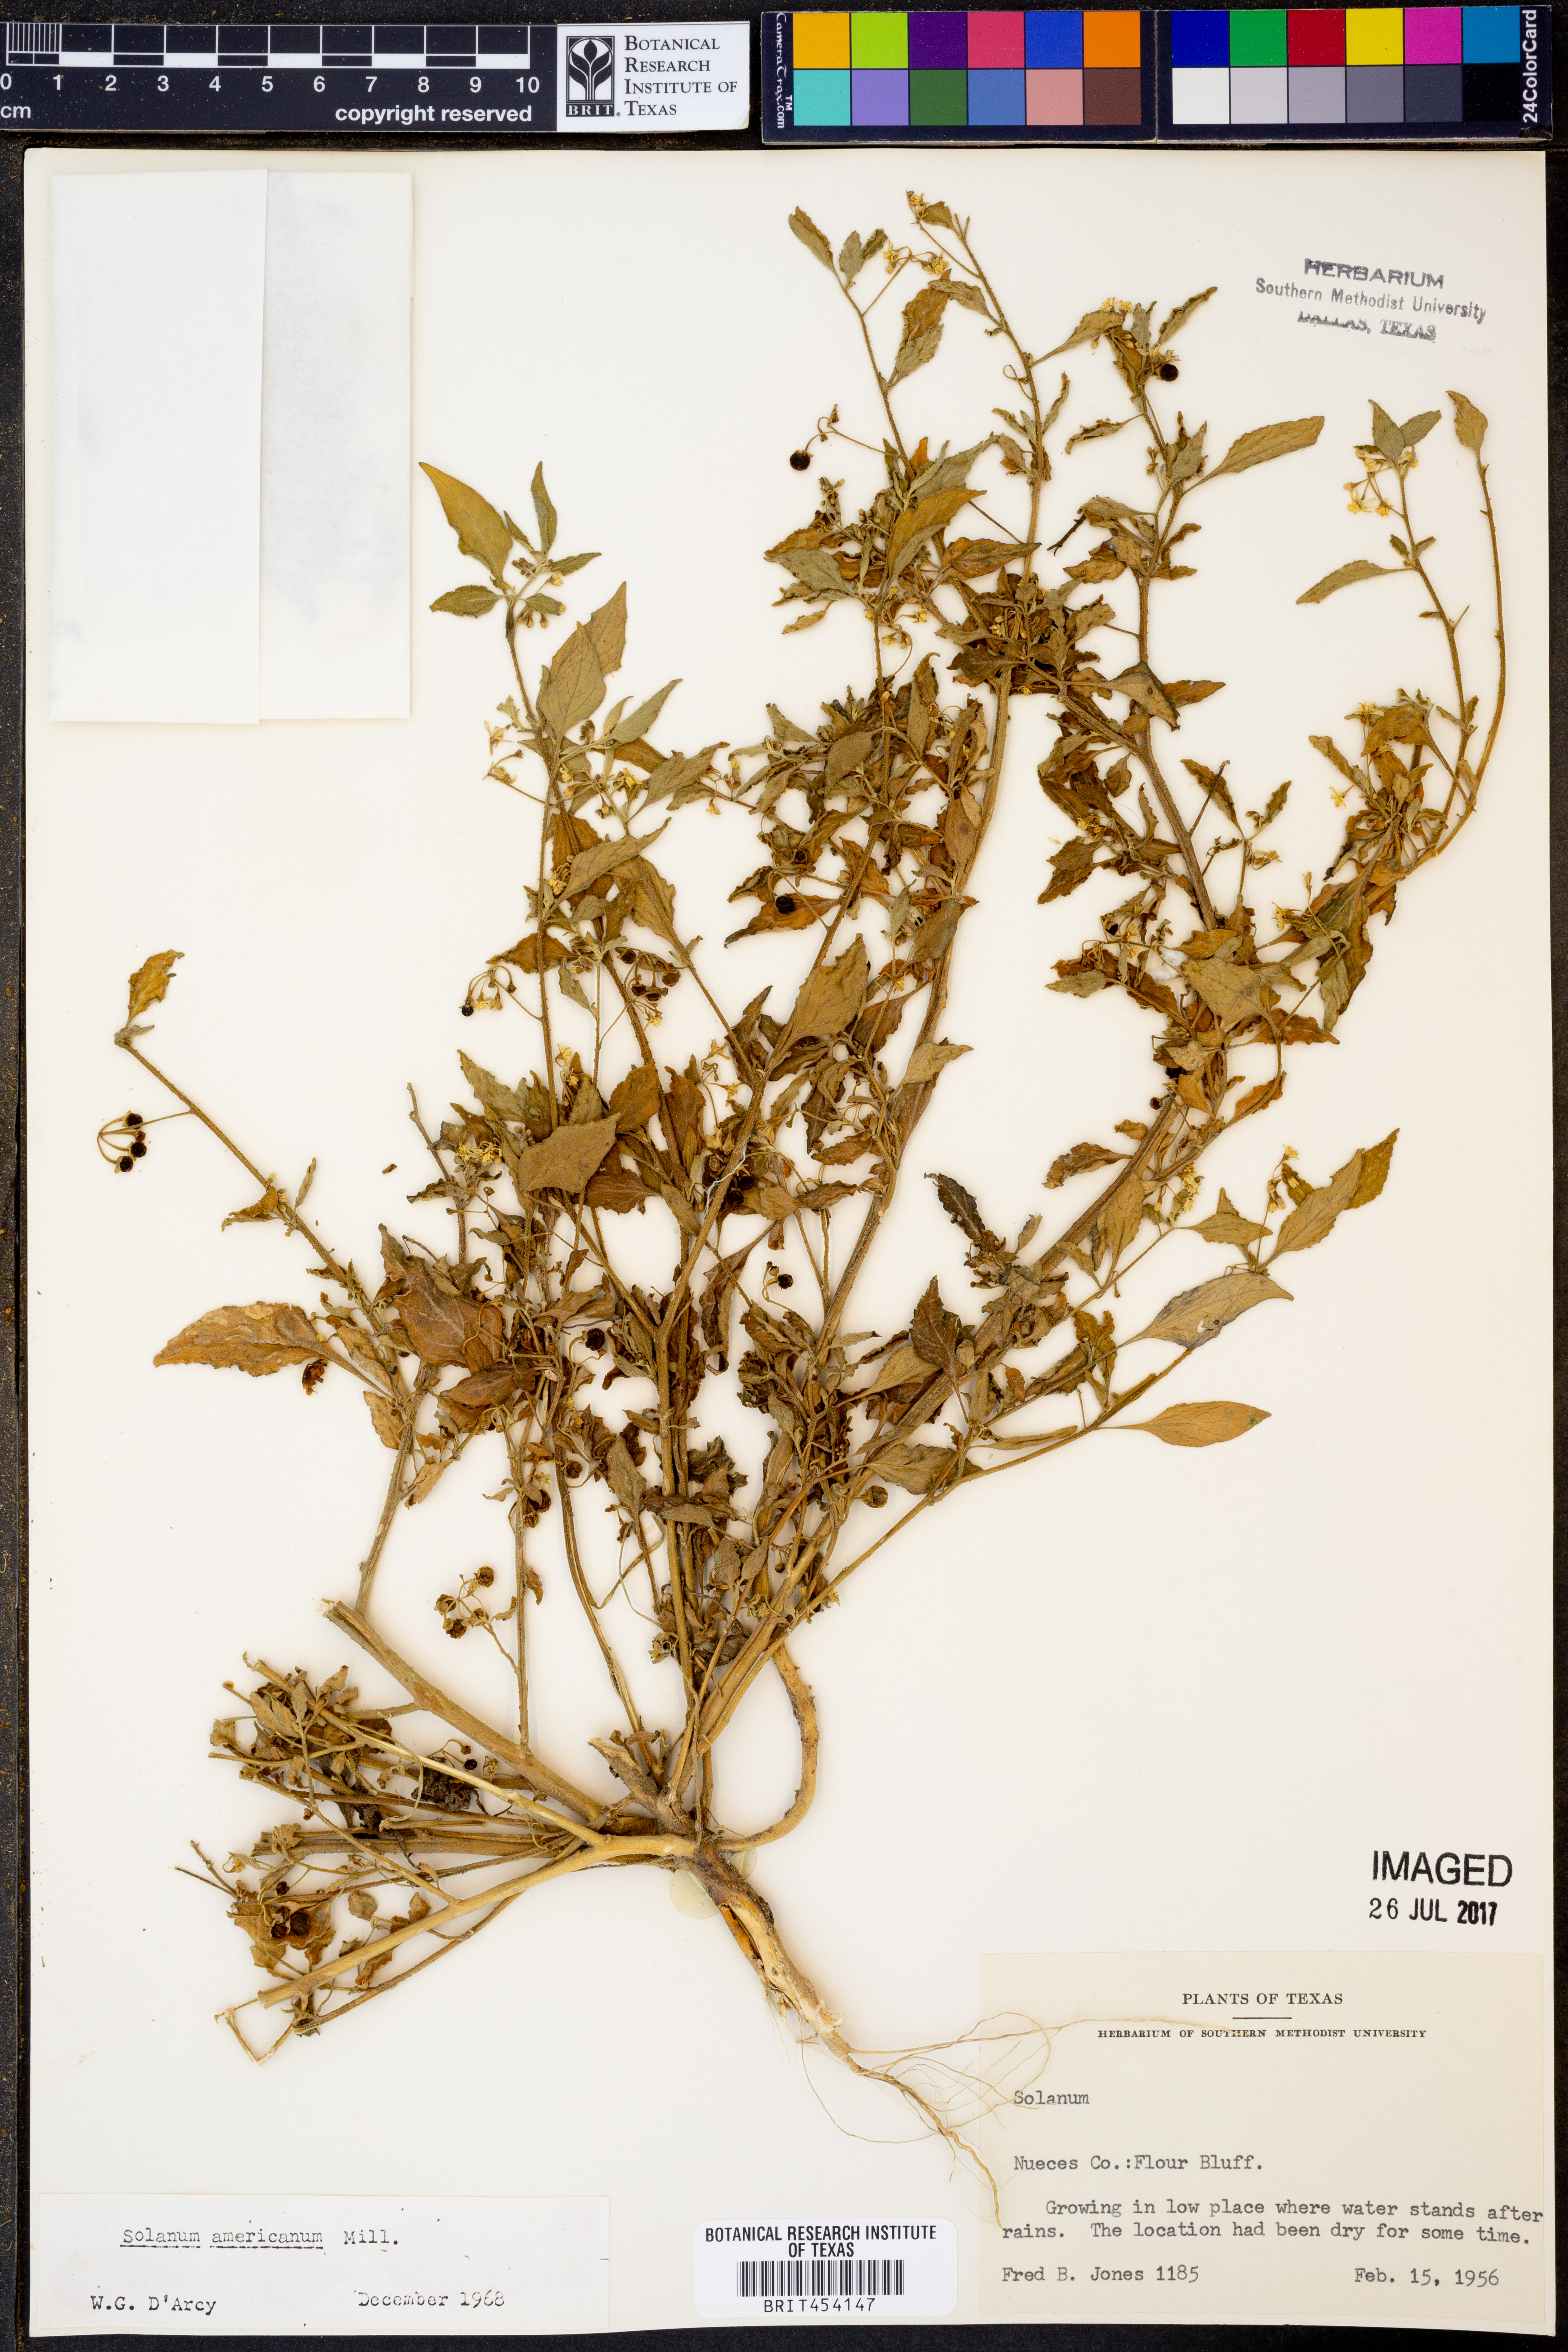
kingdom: Plantae
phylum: Tracheophyta
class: Magnoliopsida
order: Solanales
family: Solanaceae
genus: Solanum
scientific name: Solanum americanum
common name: American black nightshade
